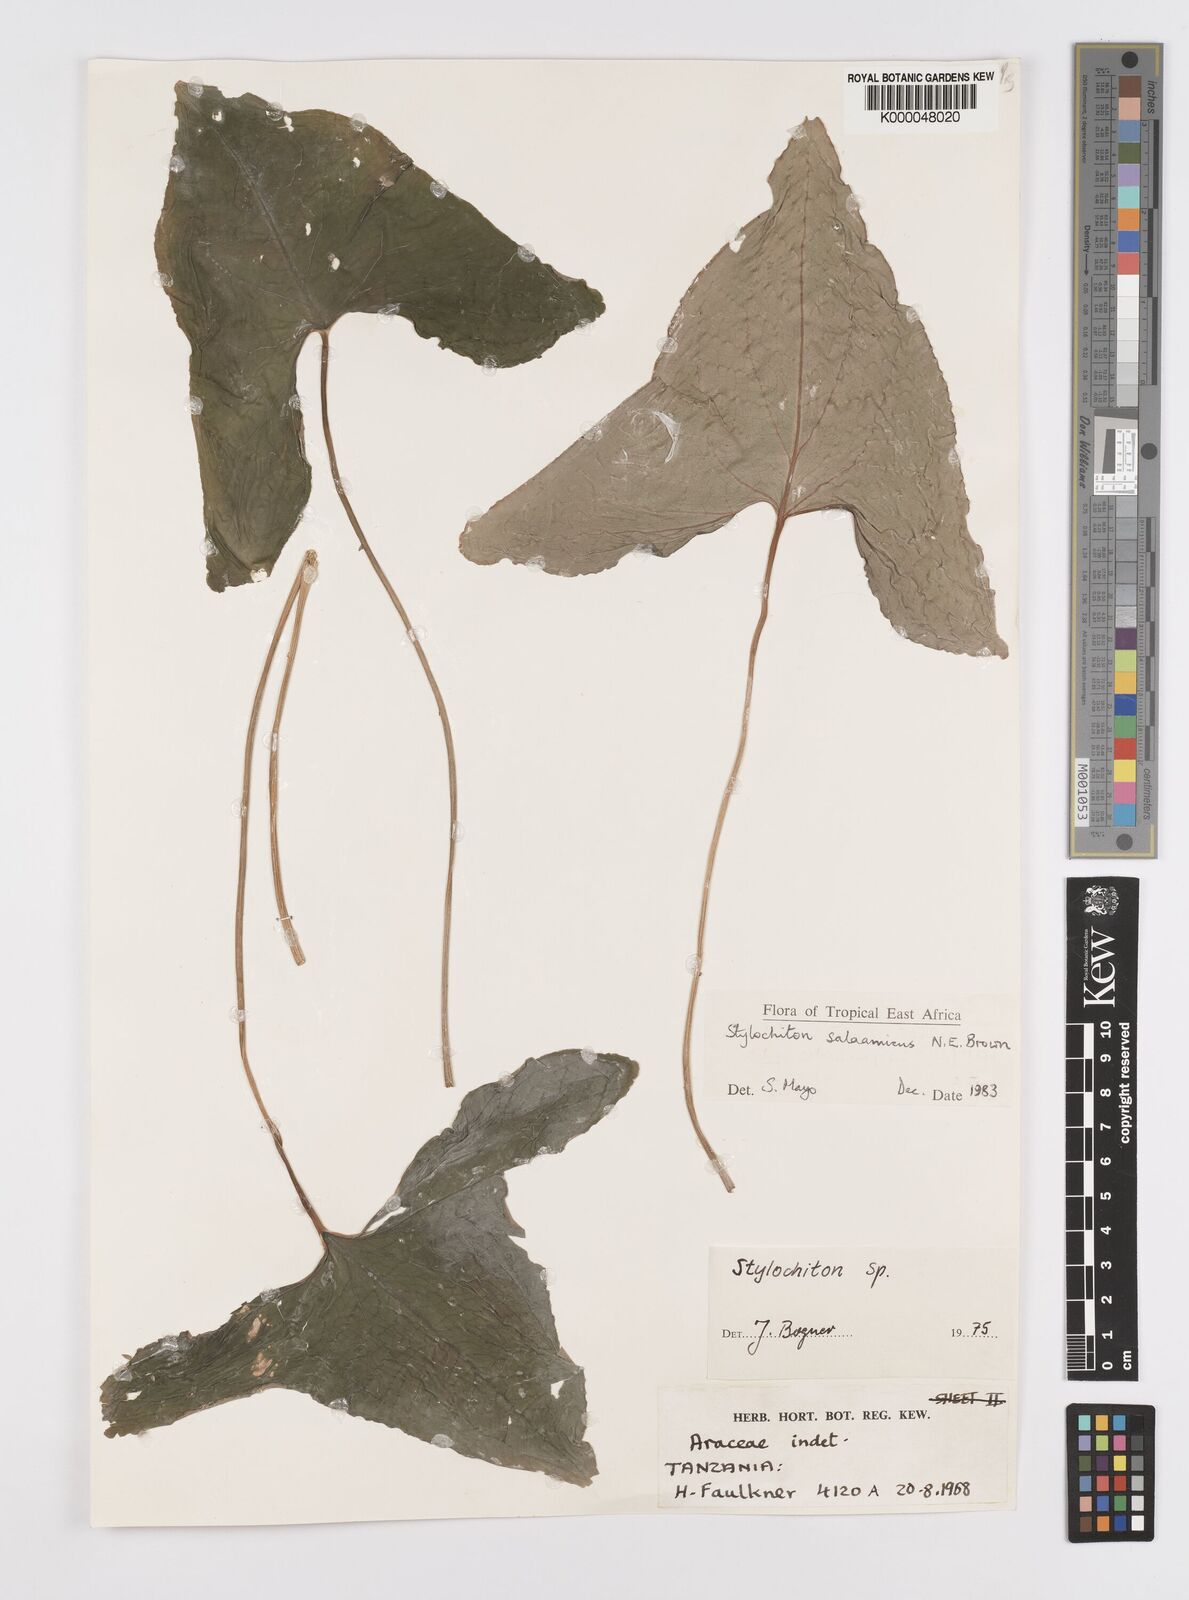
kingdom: Plantae
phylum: Tracheophyta
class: Liliopsida
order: Alismatales
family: Araceae
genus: Stylochaeton
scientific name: Stylochaeton salaamicum
